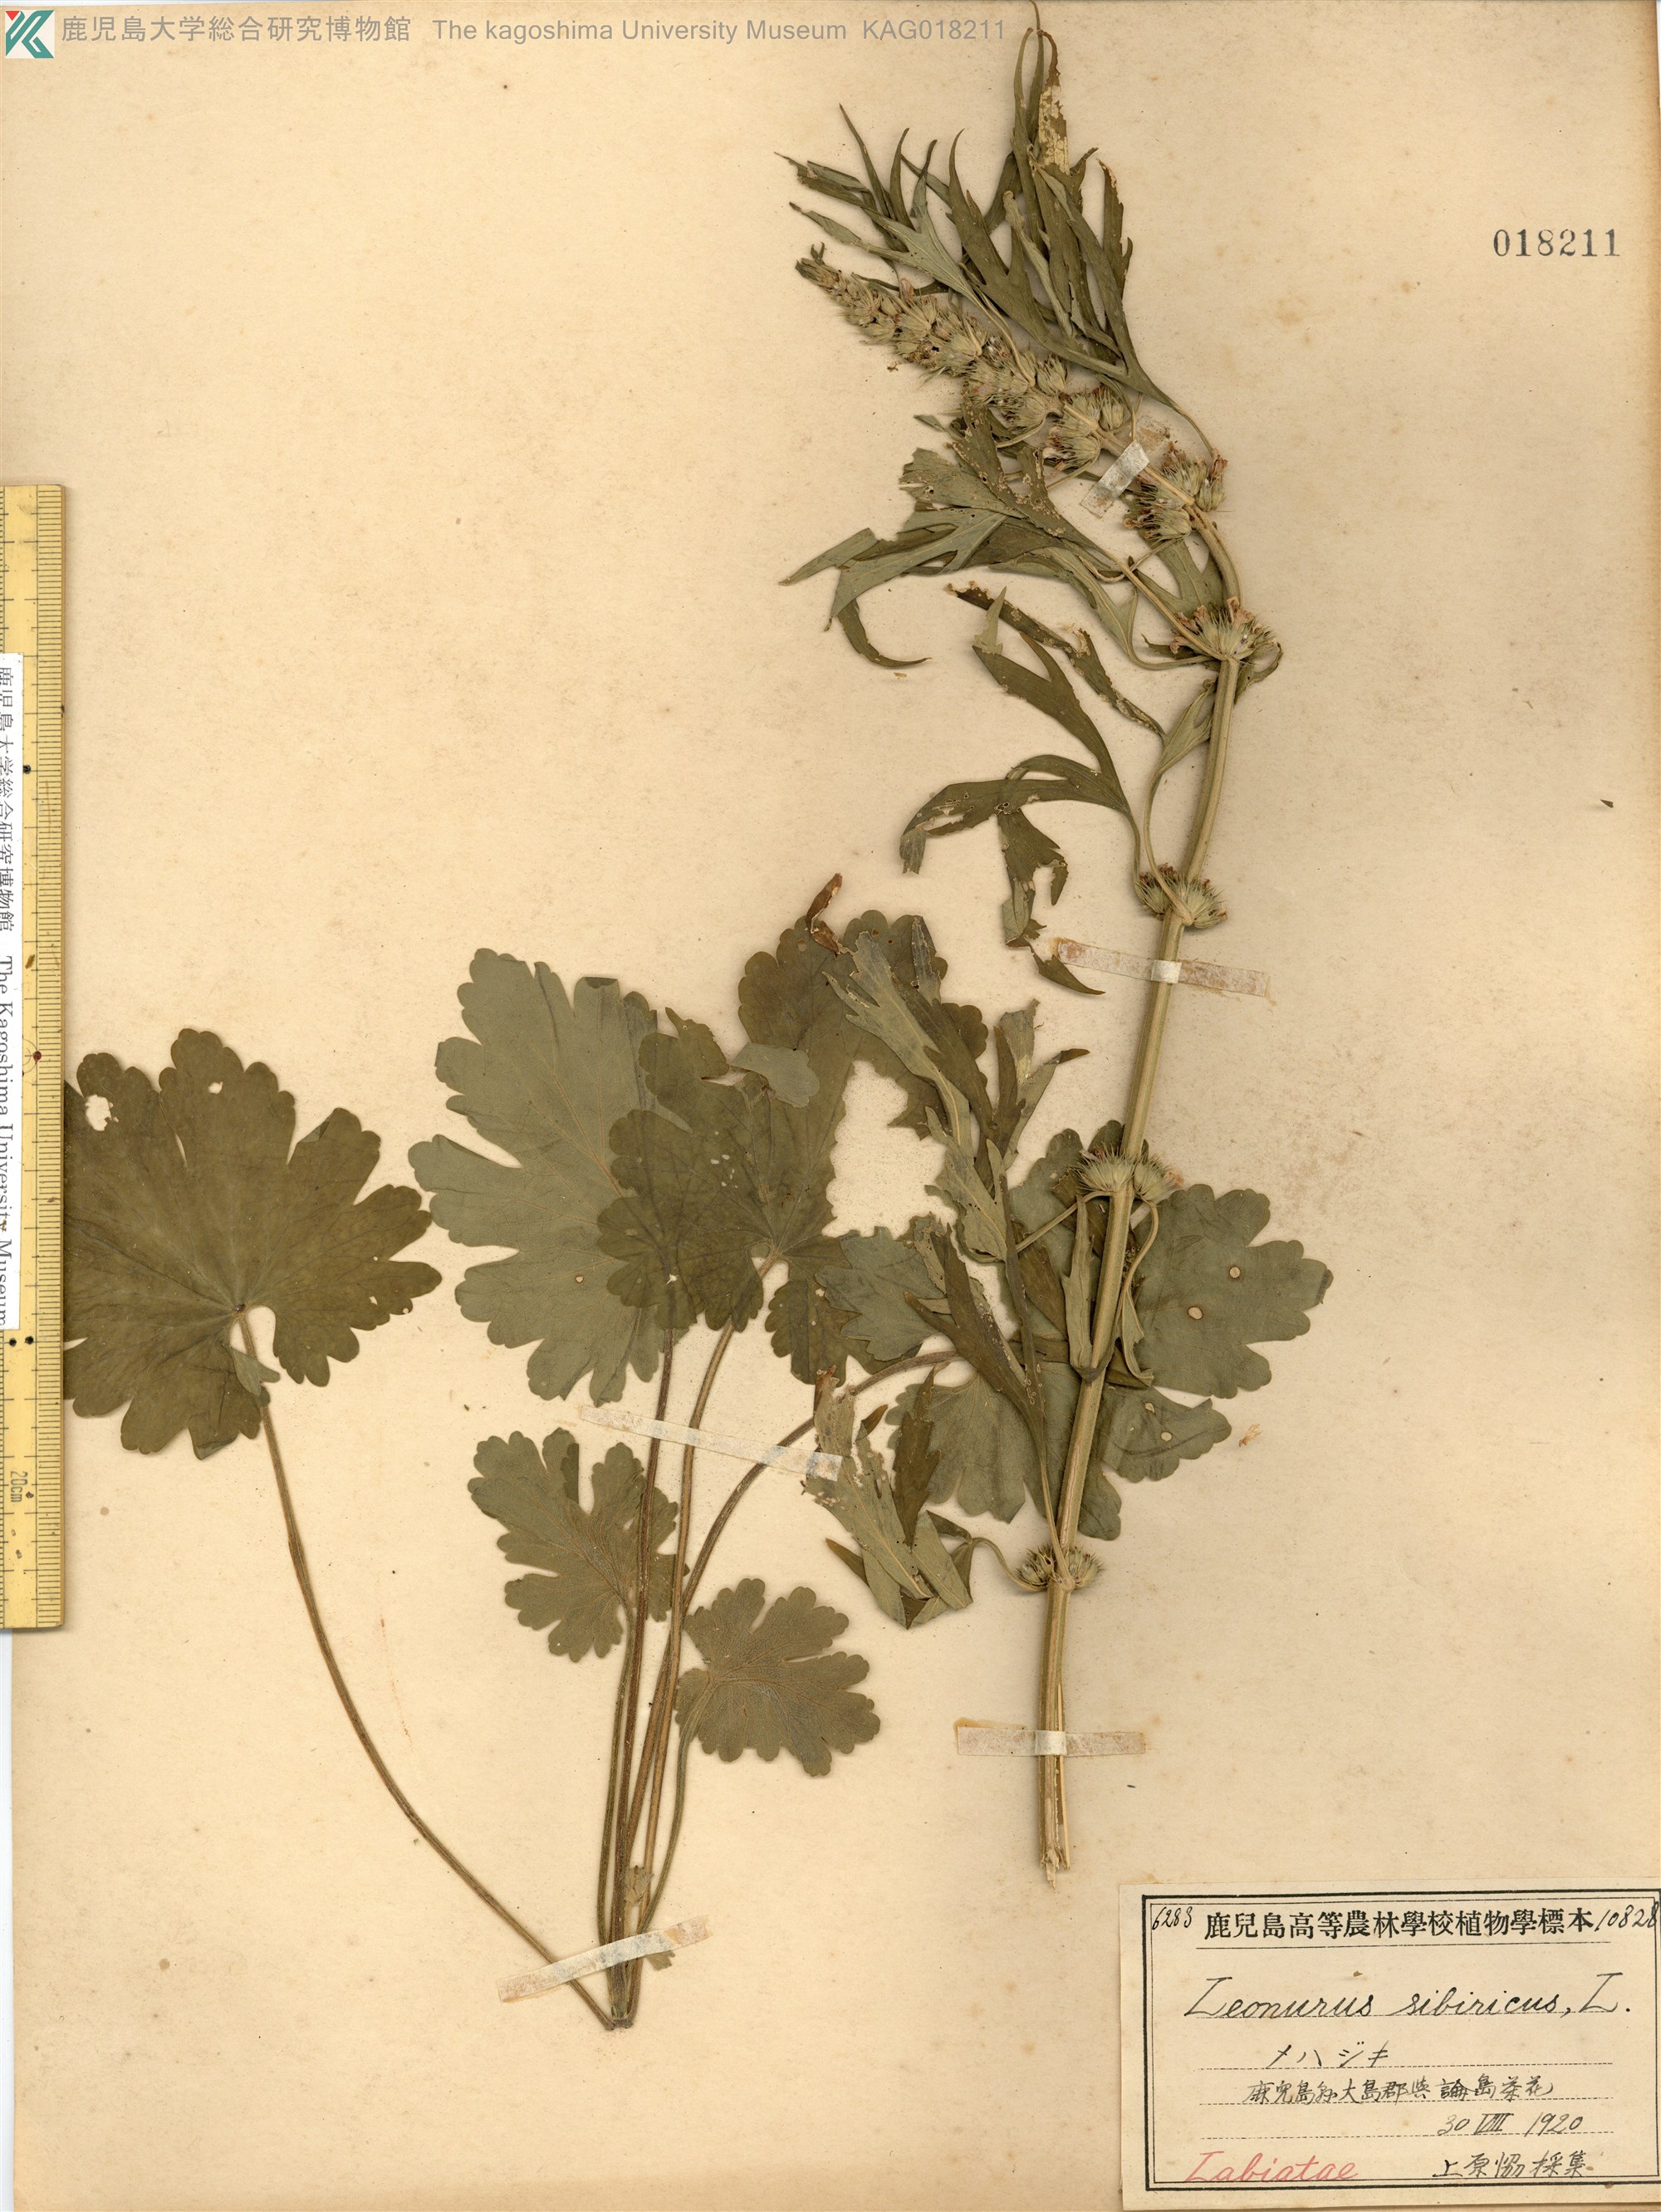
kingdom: Plantae
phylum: Tracheophyta
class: Magnoliopsida
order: Lamiales
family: Lamiaceae
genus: Leonurus
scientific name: Leonurus japonicus
